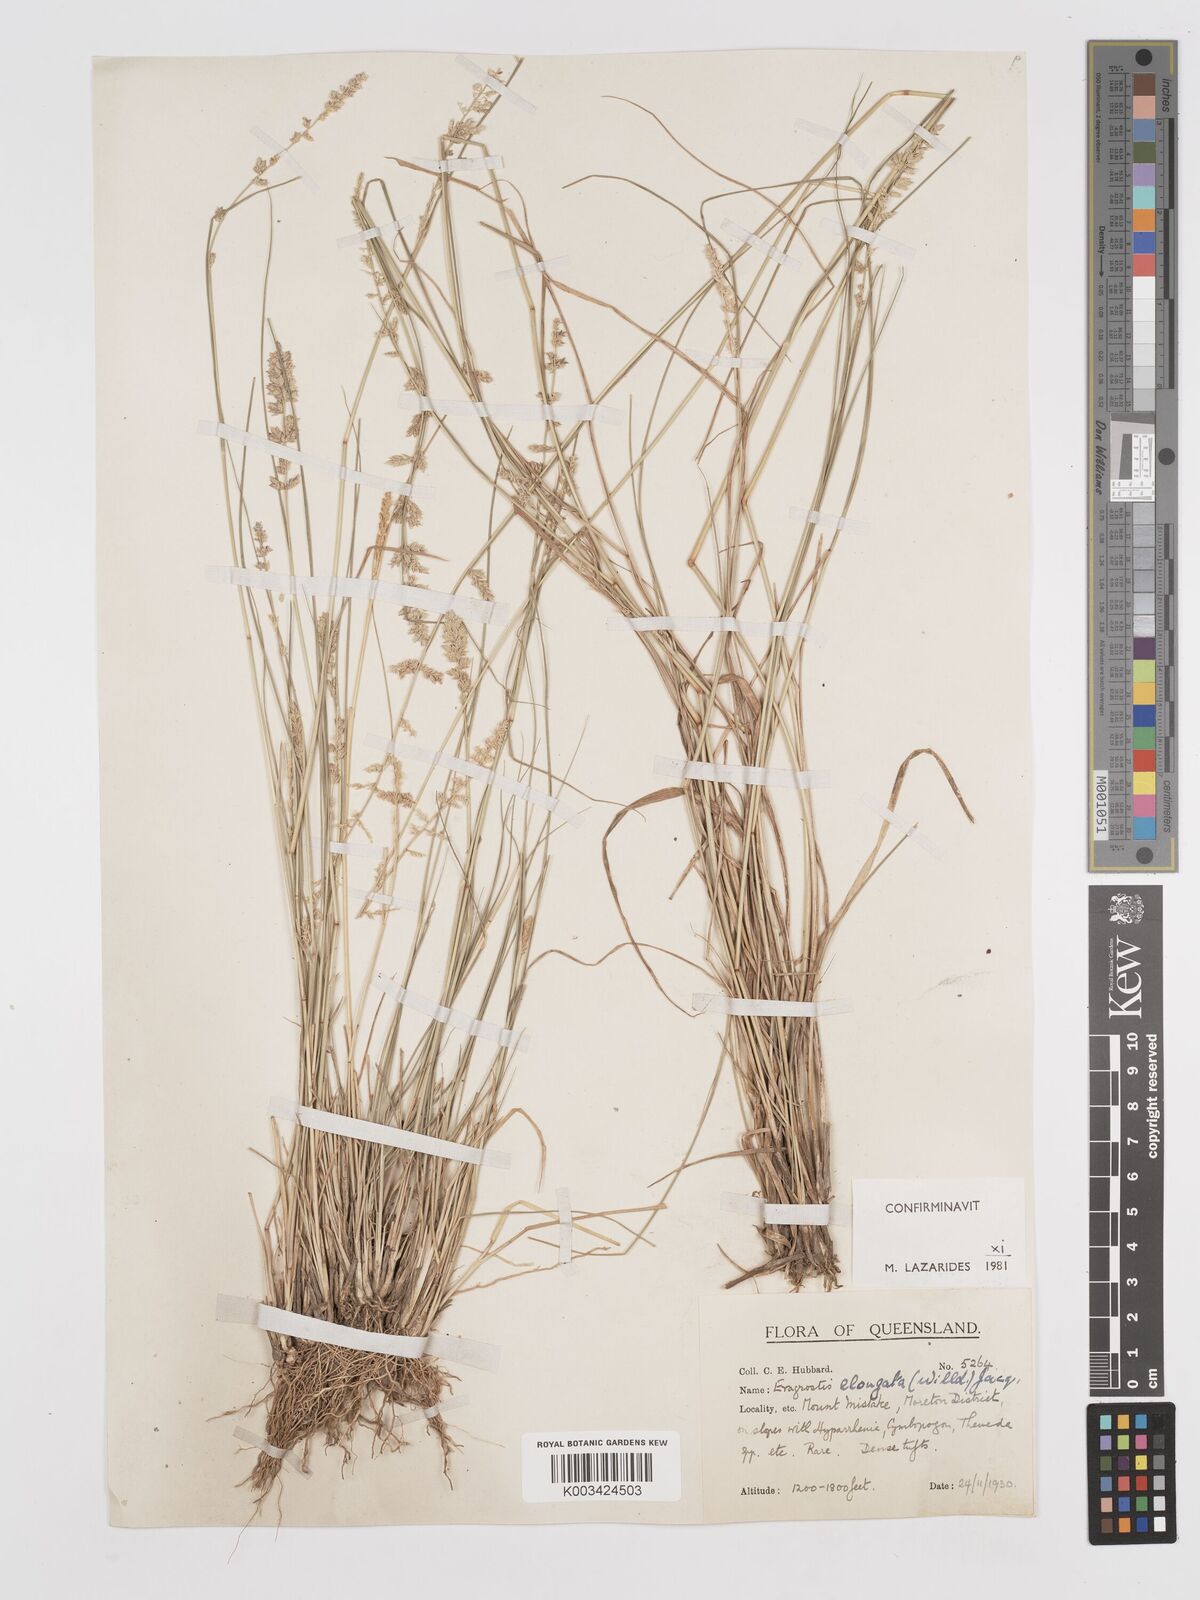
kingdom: Plantae
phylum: Tracheophyta
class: Liliopsida
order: Poales
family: Poaceae
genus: Eragrostis
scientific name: Eragrostis elongata
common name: Long lovegrass
